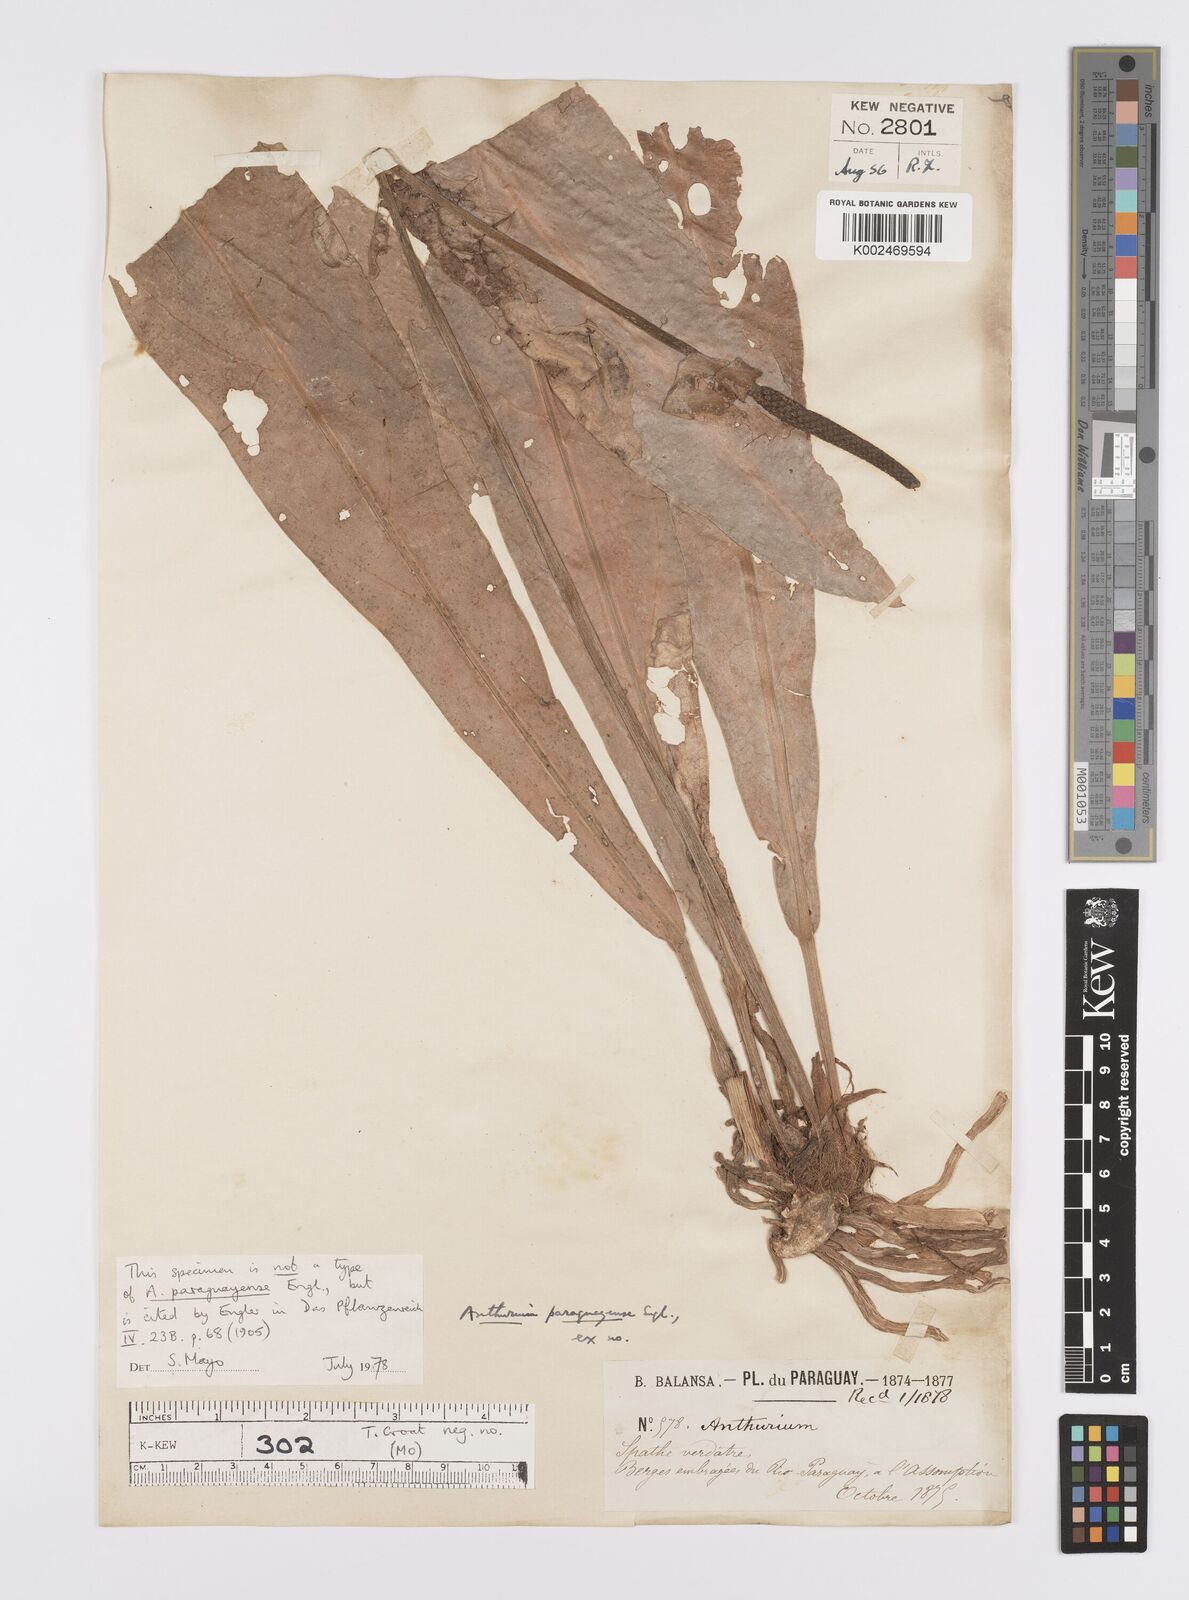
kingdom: Plantae
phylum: Tracheophyta
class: Liliopsida
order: Alismatales
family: Araceae
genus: Anthurium
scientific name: Anthurium paraguayense
